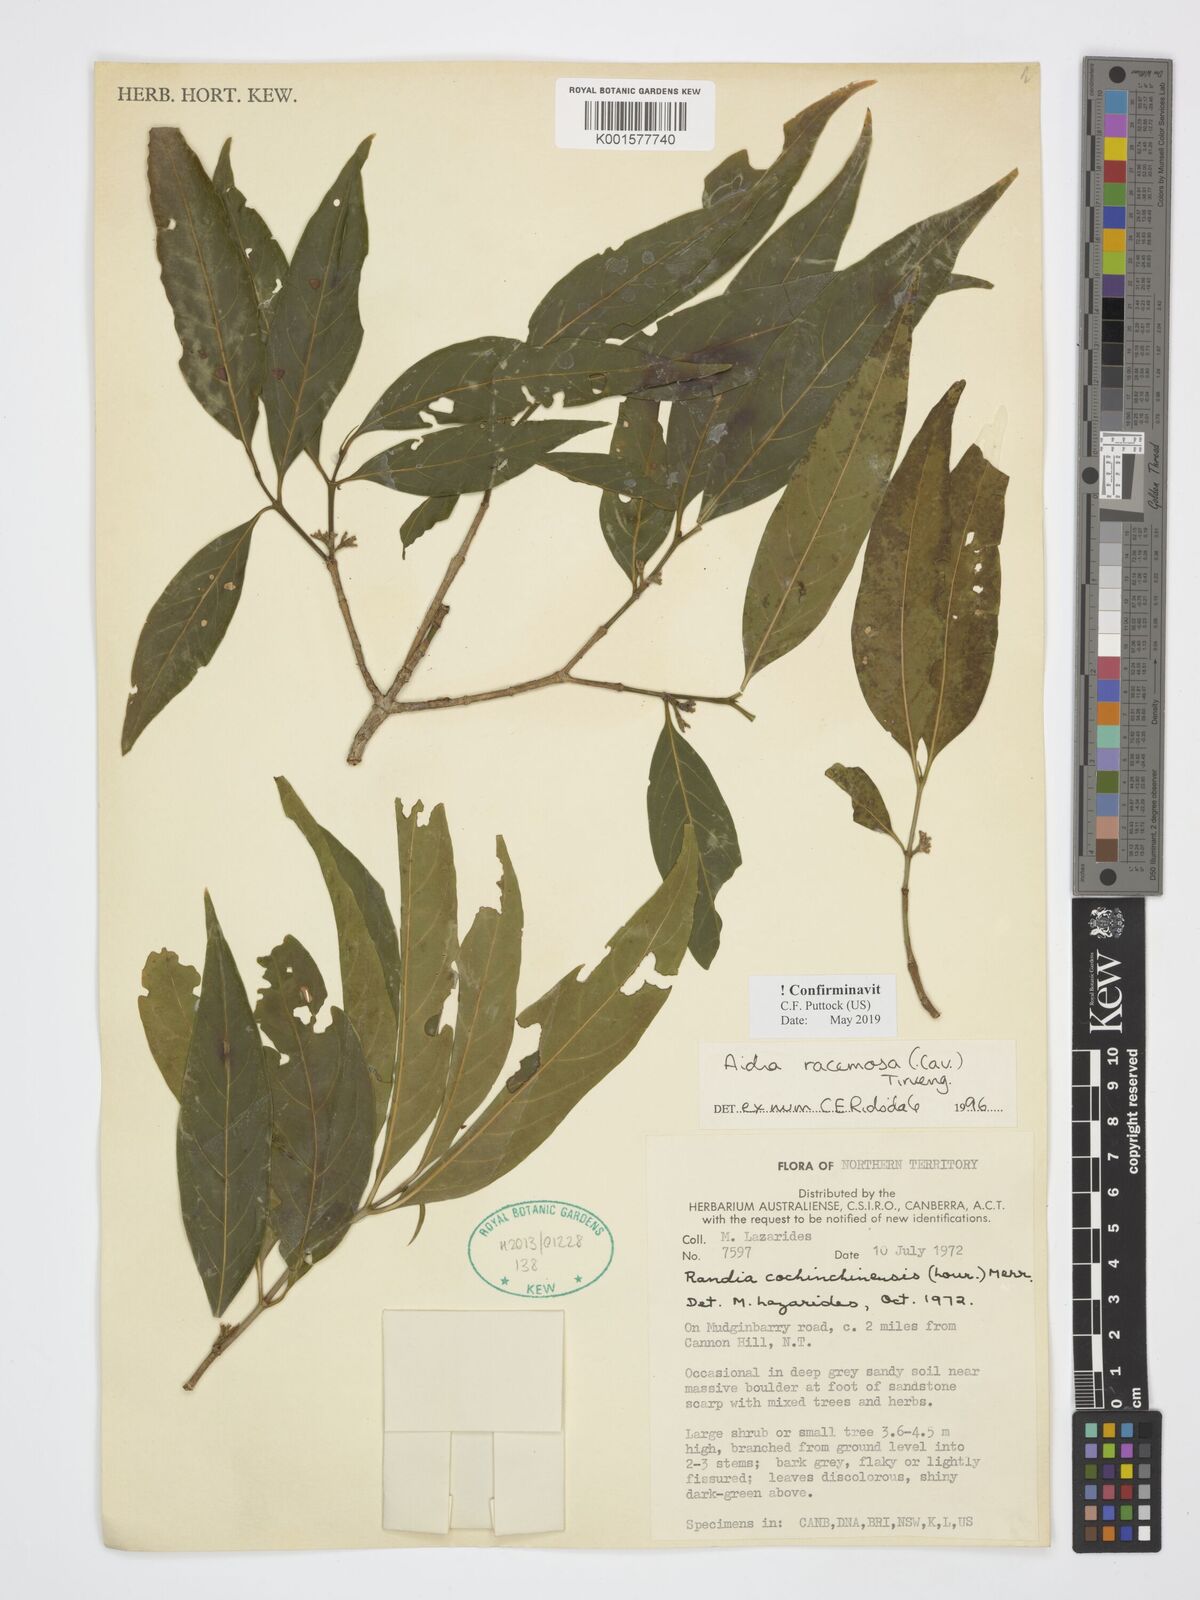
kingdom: Plantae
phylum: Tracheophyta
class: Magnoliopsida
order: Gentianales
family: Rubiaceae
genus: Aidia
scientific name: Aidia racemosa
